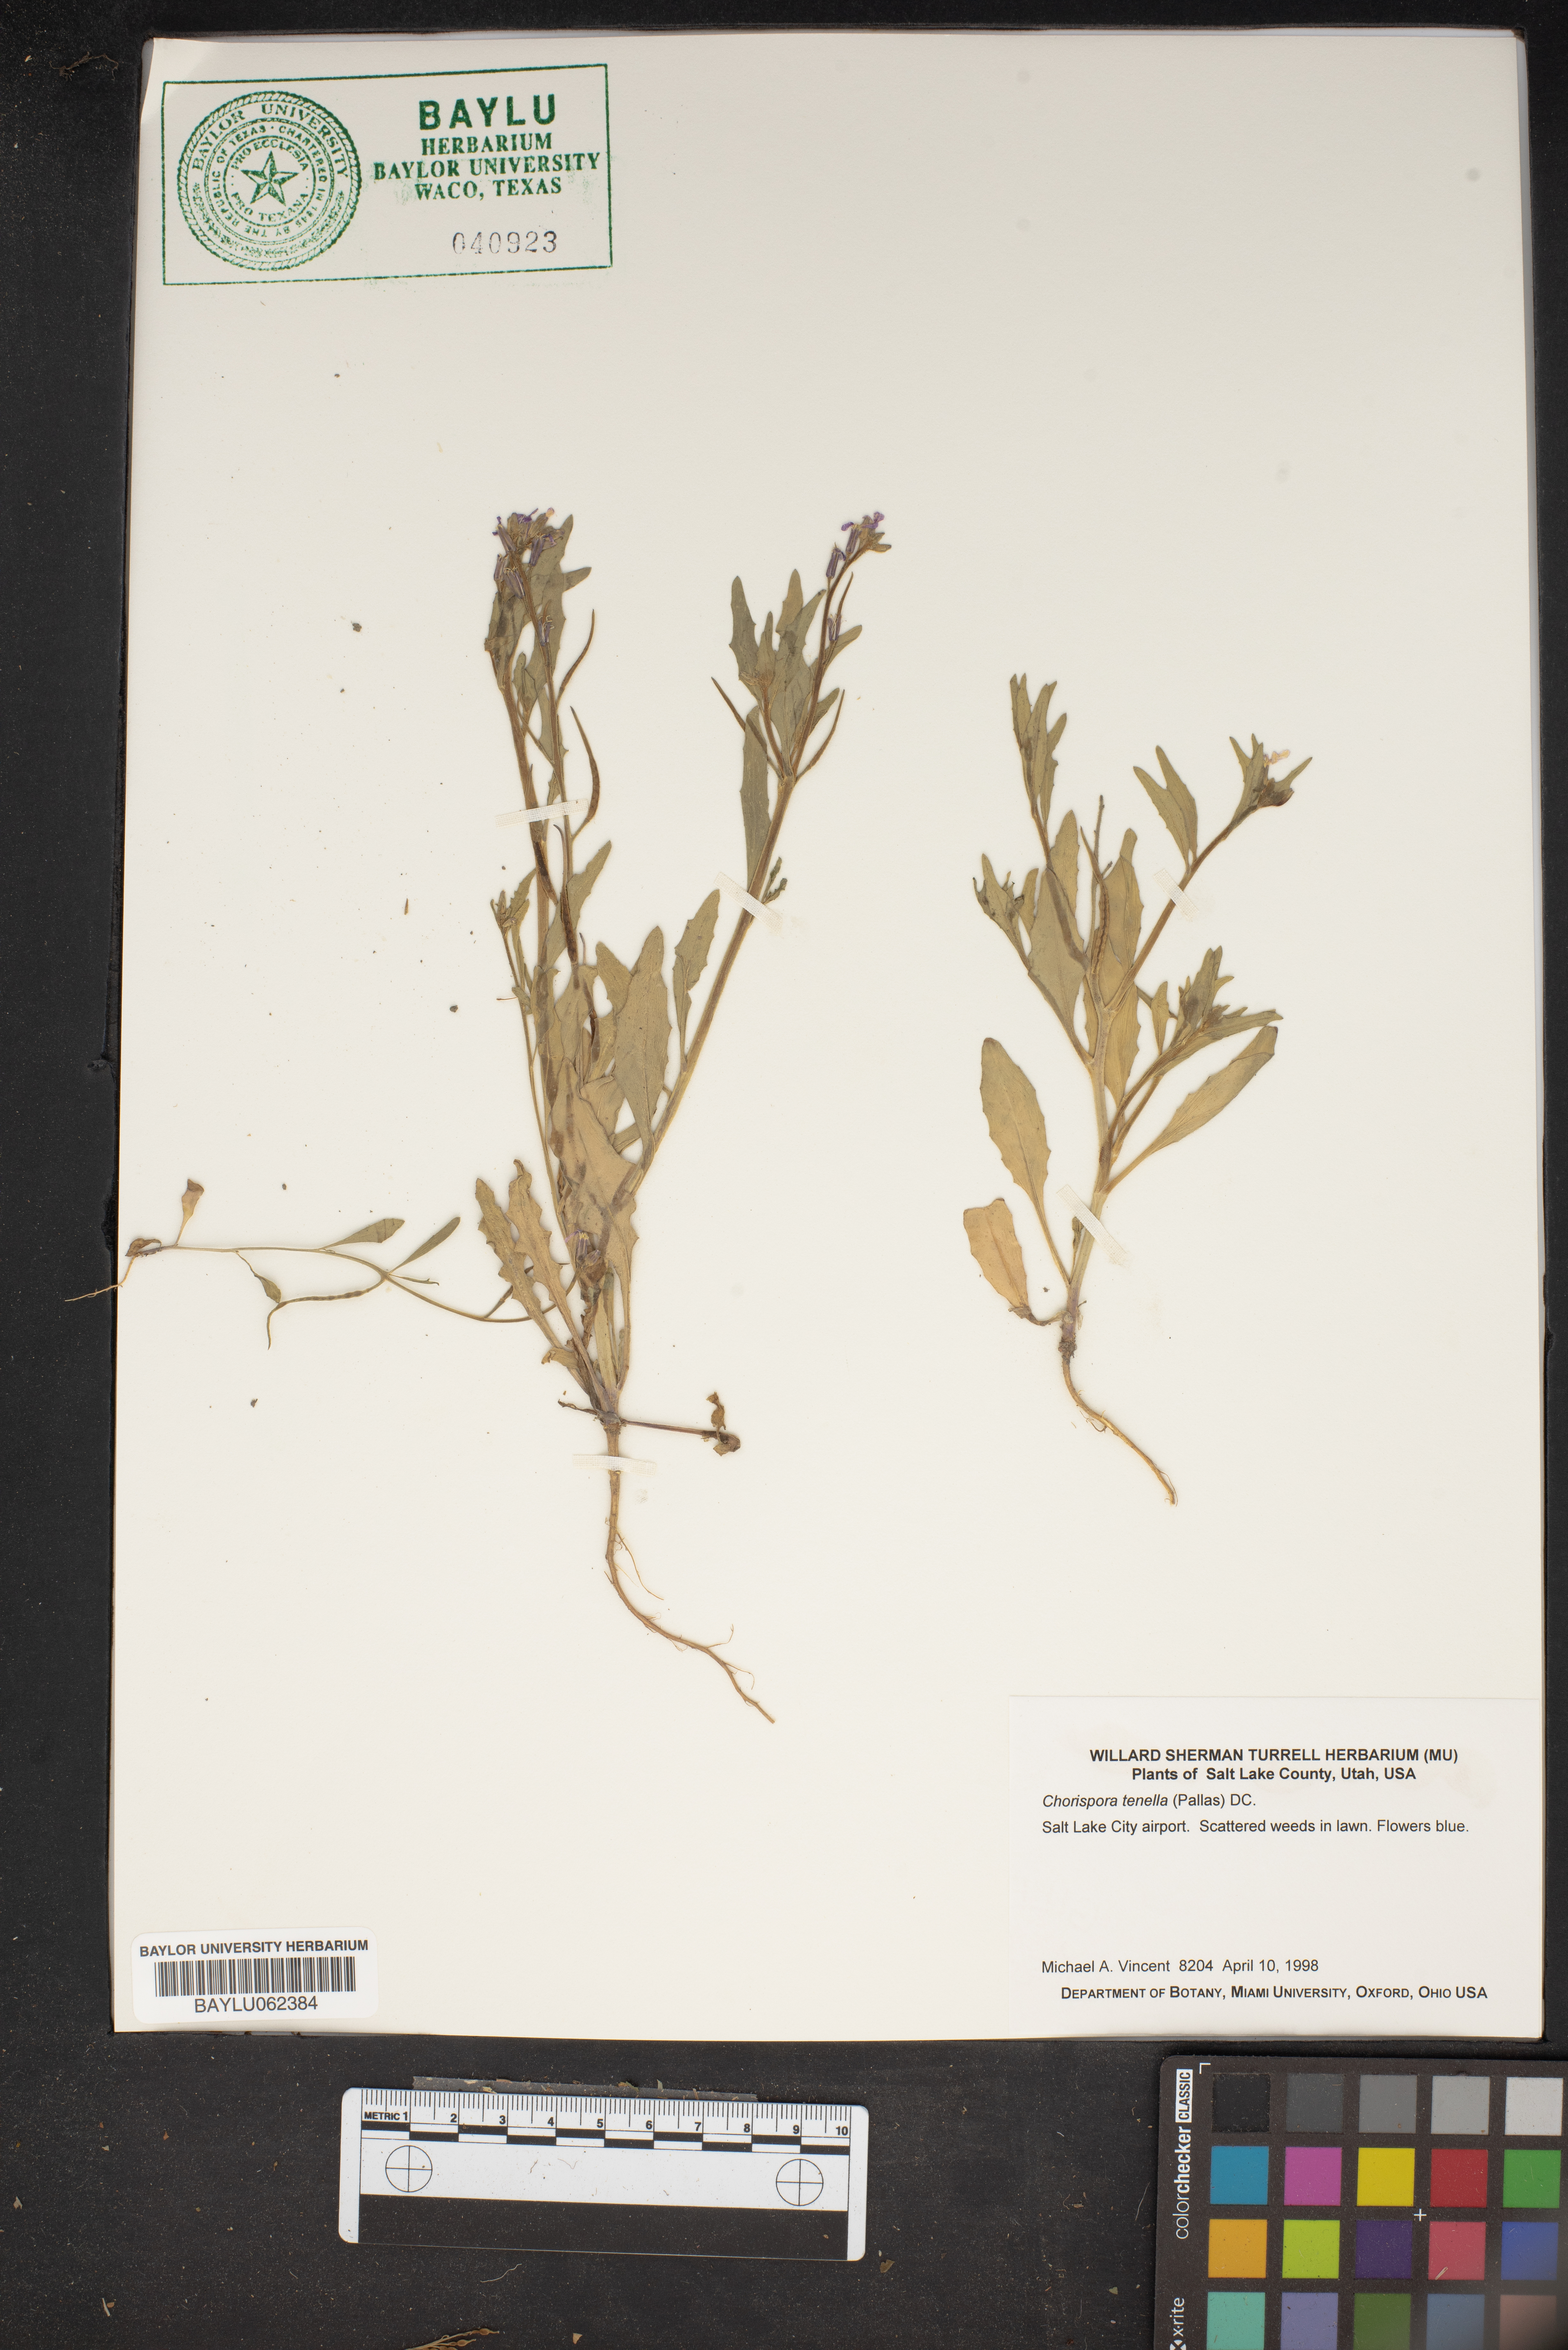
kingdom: Plantae
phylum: Tracheophyta
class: Magnoliopsida
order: Brassicales
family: Brassicaceae
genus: Chorispora
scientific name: Chorispora tenella
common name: Crossflower
